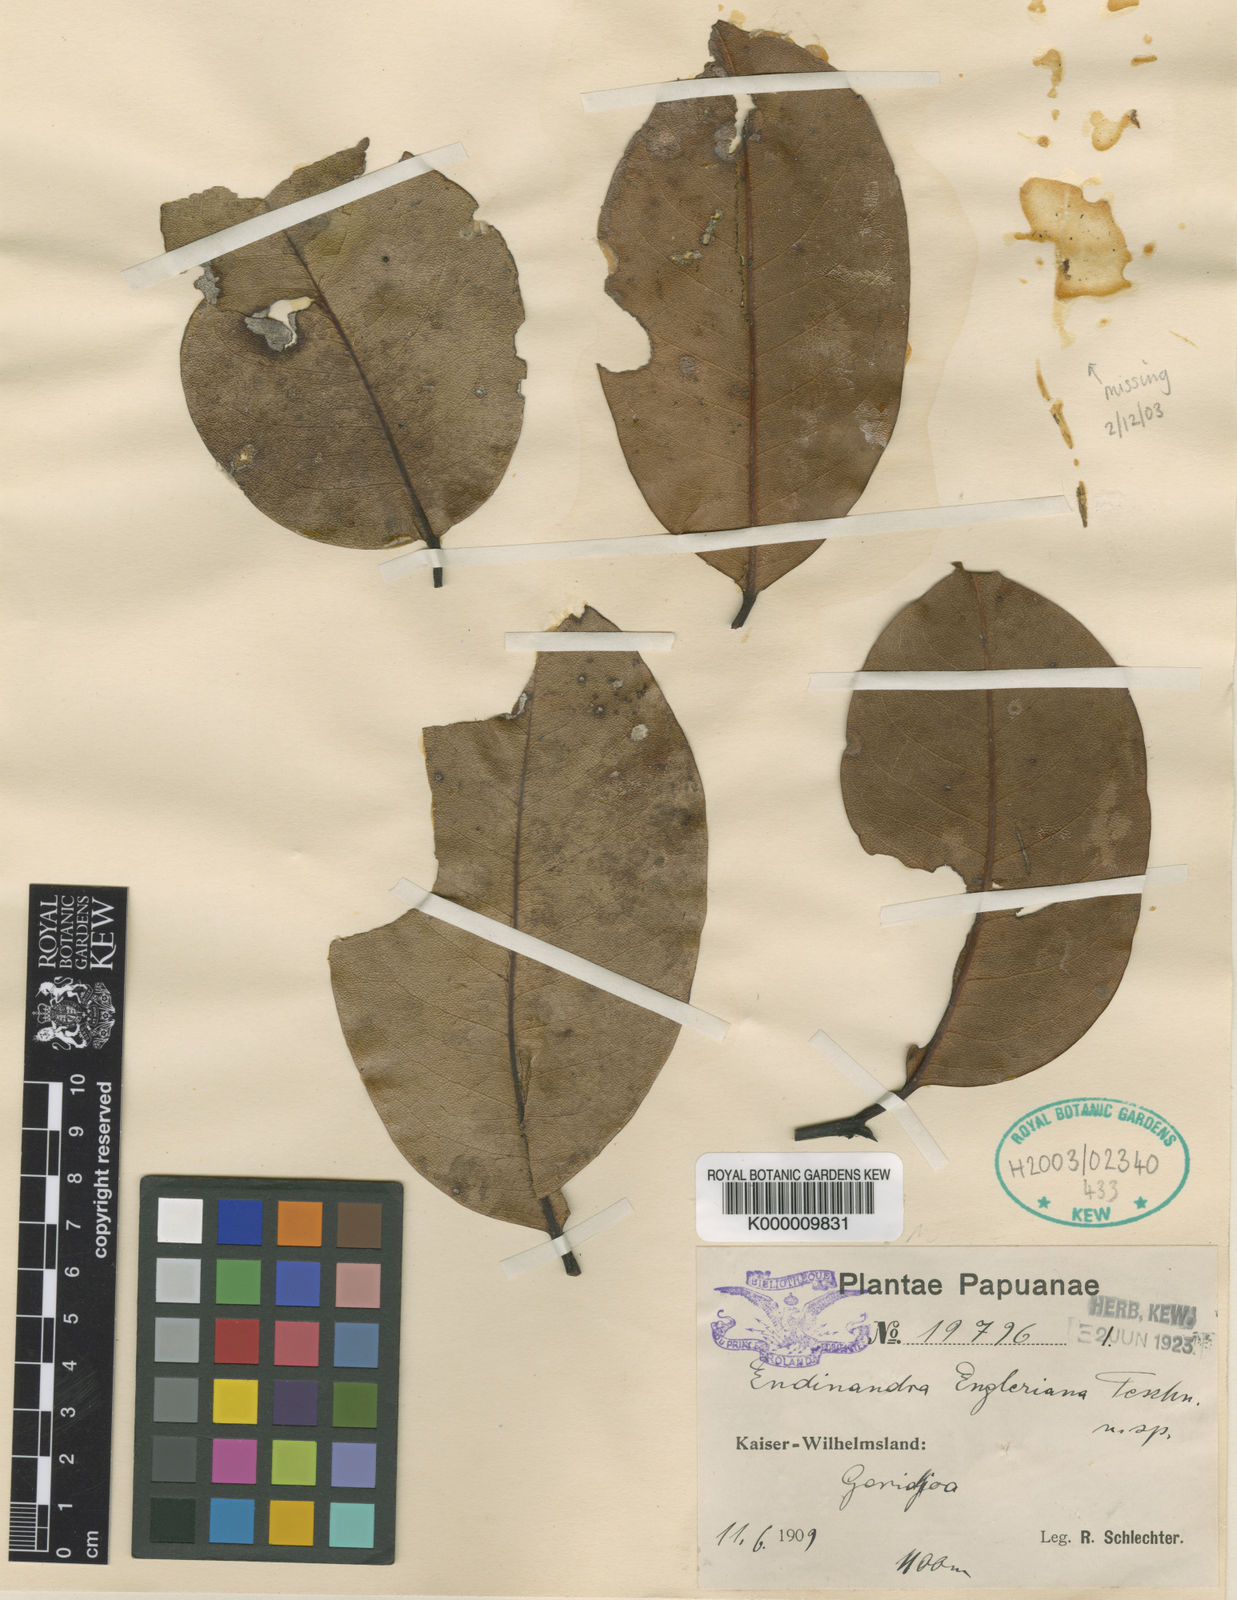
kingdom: Plantae
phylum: Tracheophyta
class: Magnoliopsida
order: Laurales
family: Lauraceae
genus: Endiandra
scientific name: Endiandra engleriana
